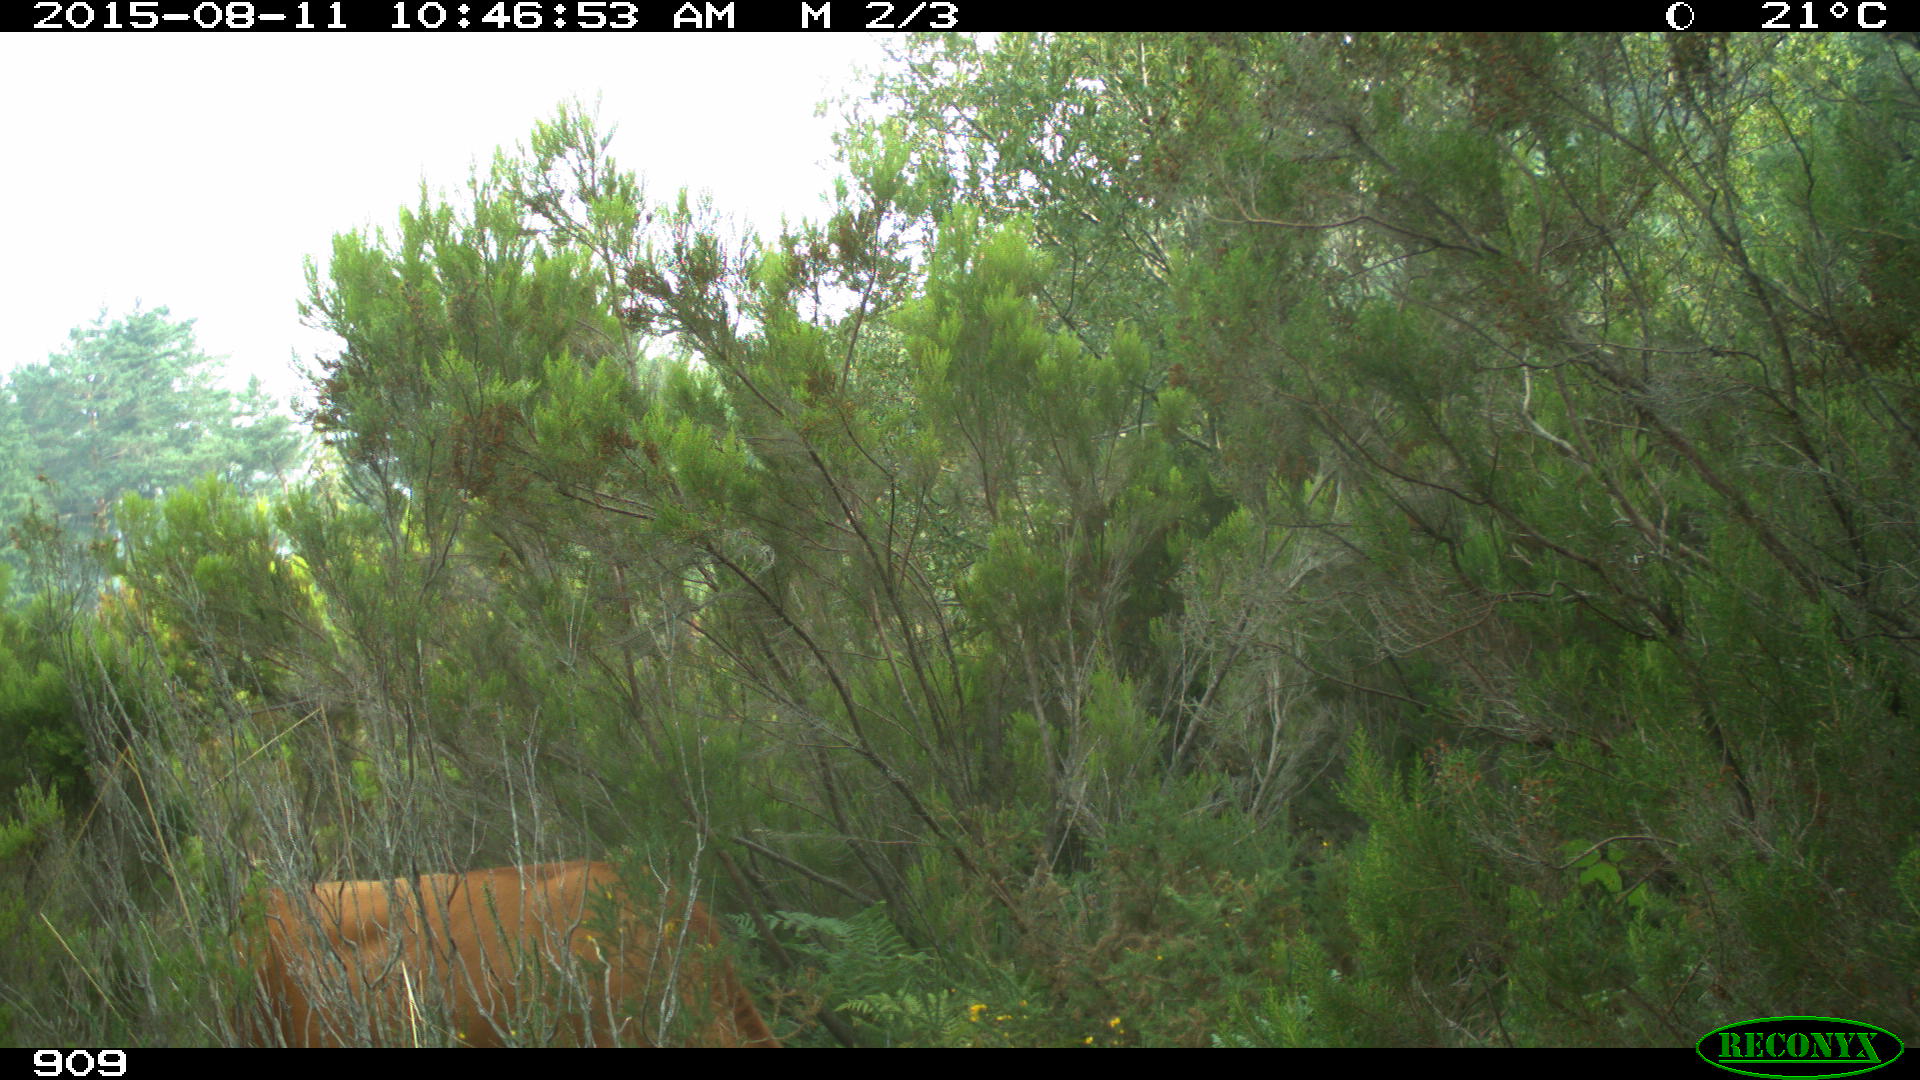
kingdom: Animalia
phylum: Chordata
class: Mammalia
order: Artiodactyla
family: Bovidae
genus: Bos
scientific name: Bos taurus
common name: Domesticated cattle
